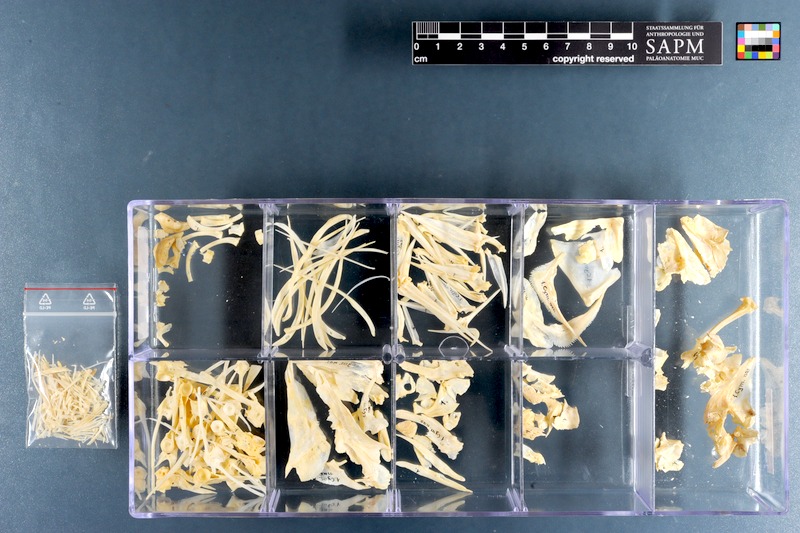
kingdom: Animalia
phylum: Chordata
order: Perciformes
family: Sparidae
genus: Cymatoceps
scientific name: Cymatoceps nasutus
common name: Black musselcracker
